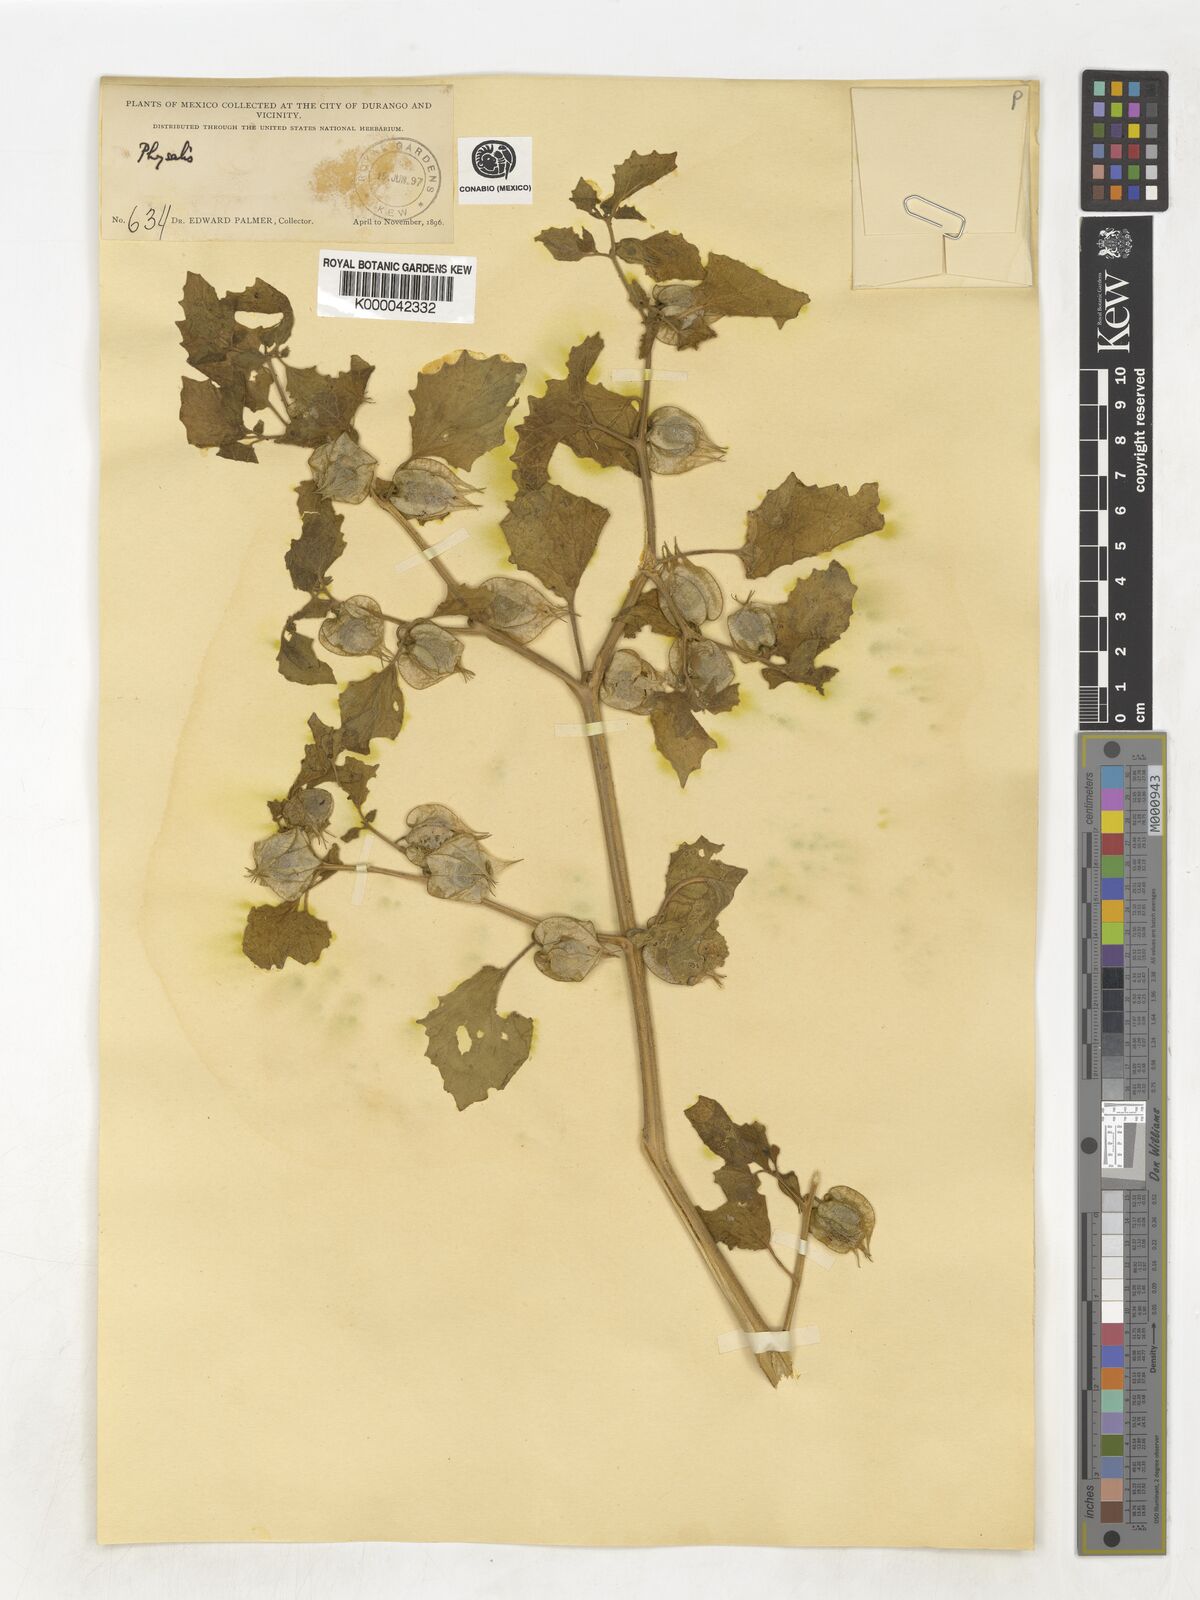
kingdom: Plantae
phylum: Tracheophyta
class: Magnoliopsida
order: Solanales
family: Solanaceae
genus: Physalis
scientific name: Physalis
